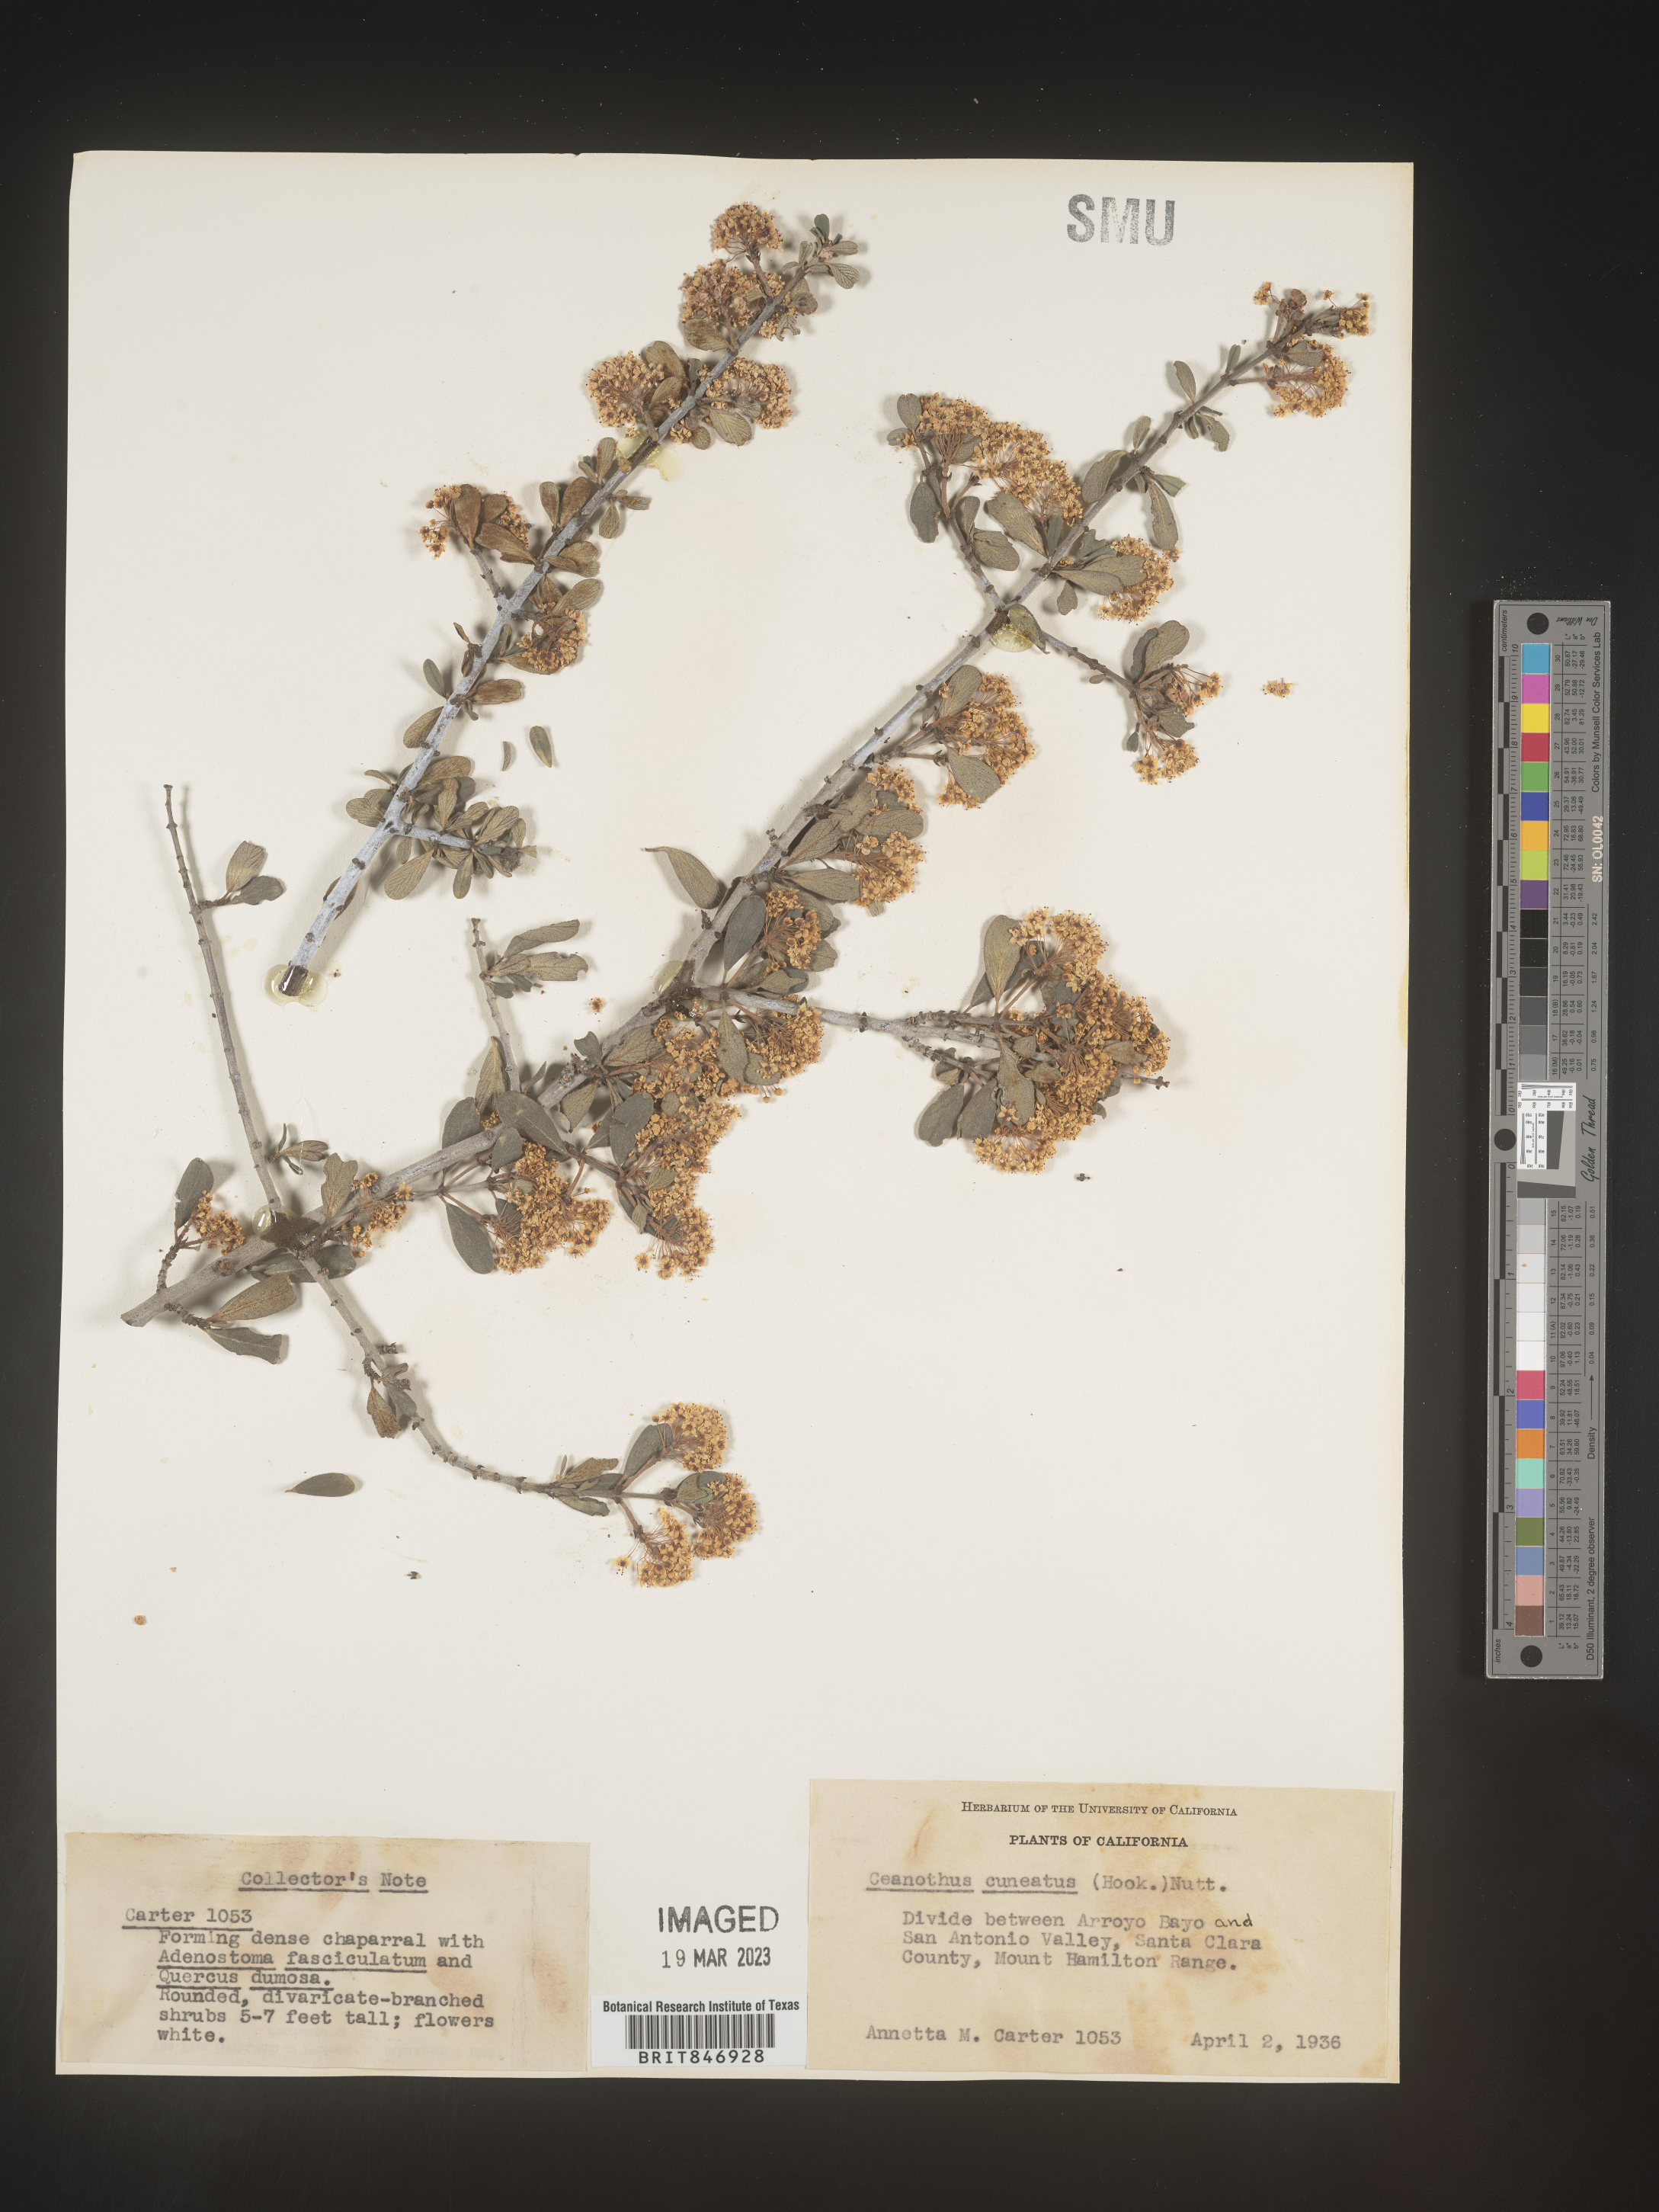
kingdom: Plantae
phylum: Tracheophyta
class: Magnoliopsida
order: Rosales
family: Rhamnaceae
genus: Ceanothus
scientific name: Ceanothus cuneatus
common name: Cuneate ceanothus
